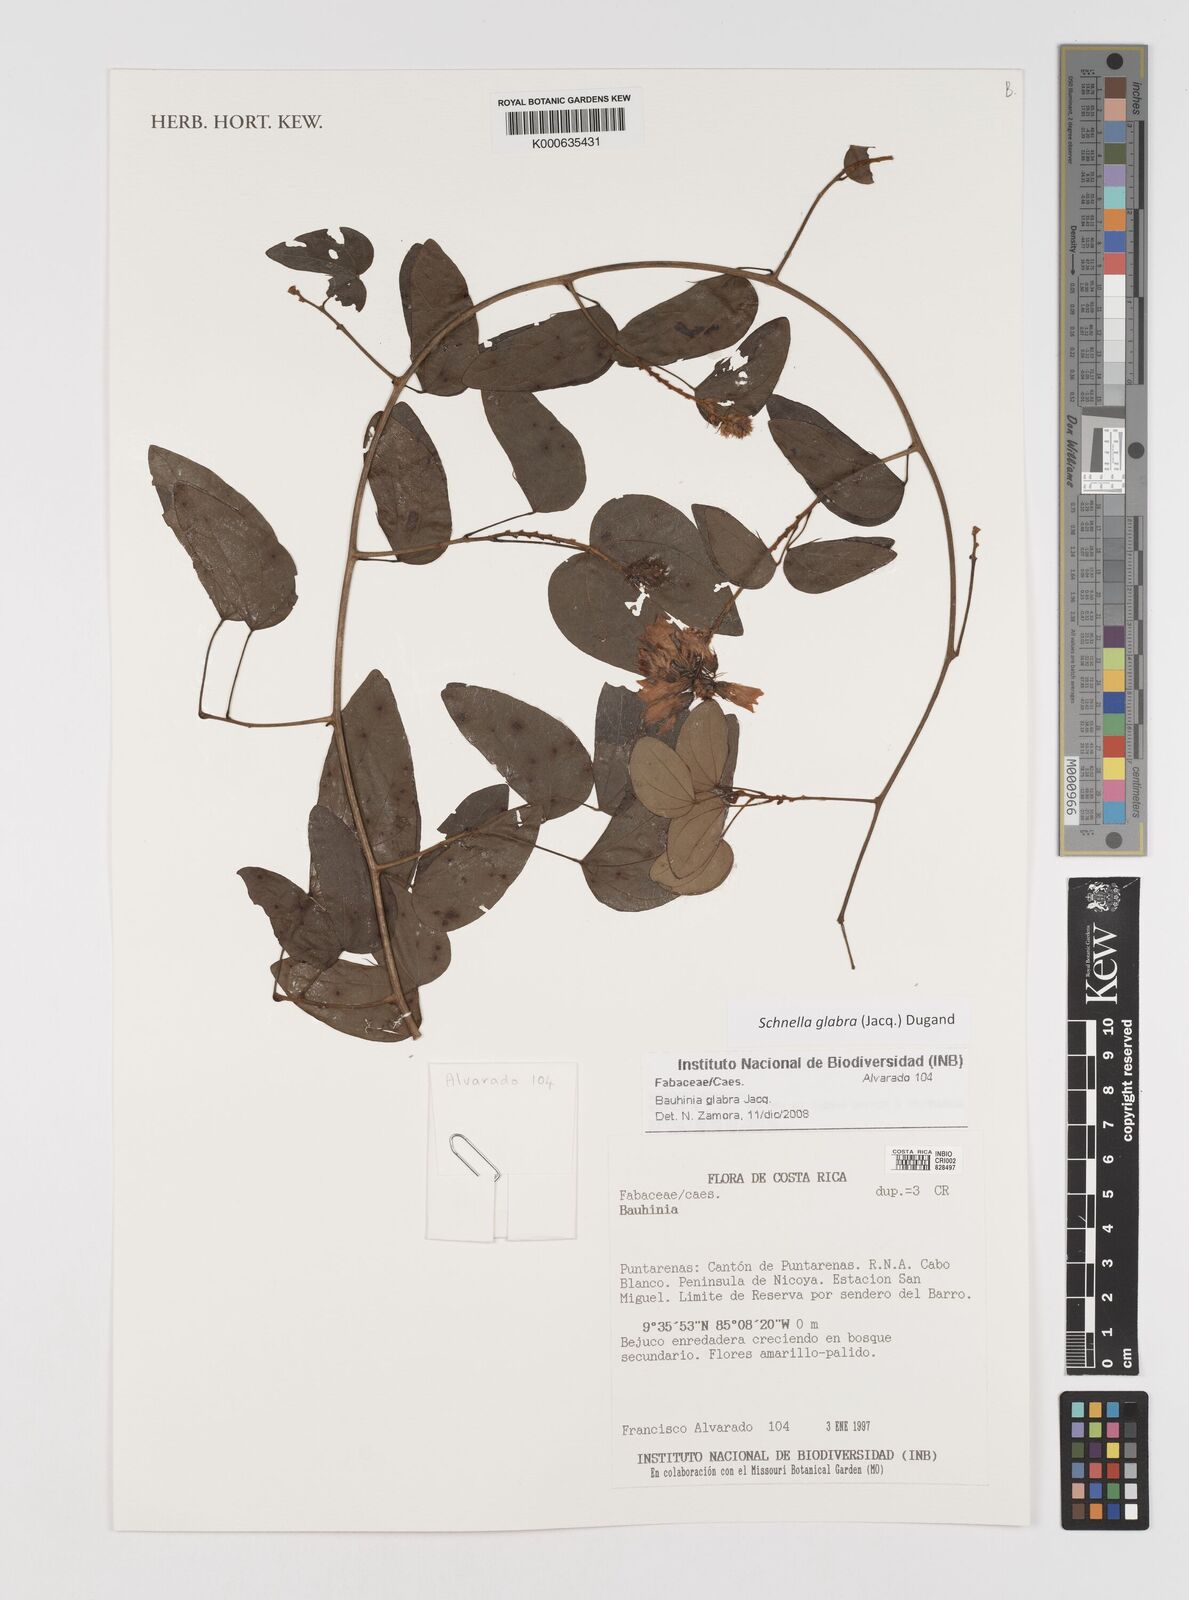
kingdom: Plantae
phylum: Tracheophyta
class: Magnoliopsida
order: Fabales
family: Fabaceae
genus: Schnella
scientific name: Schnella glabra
